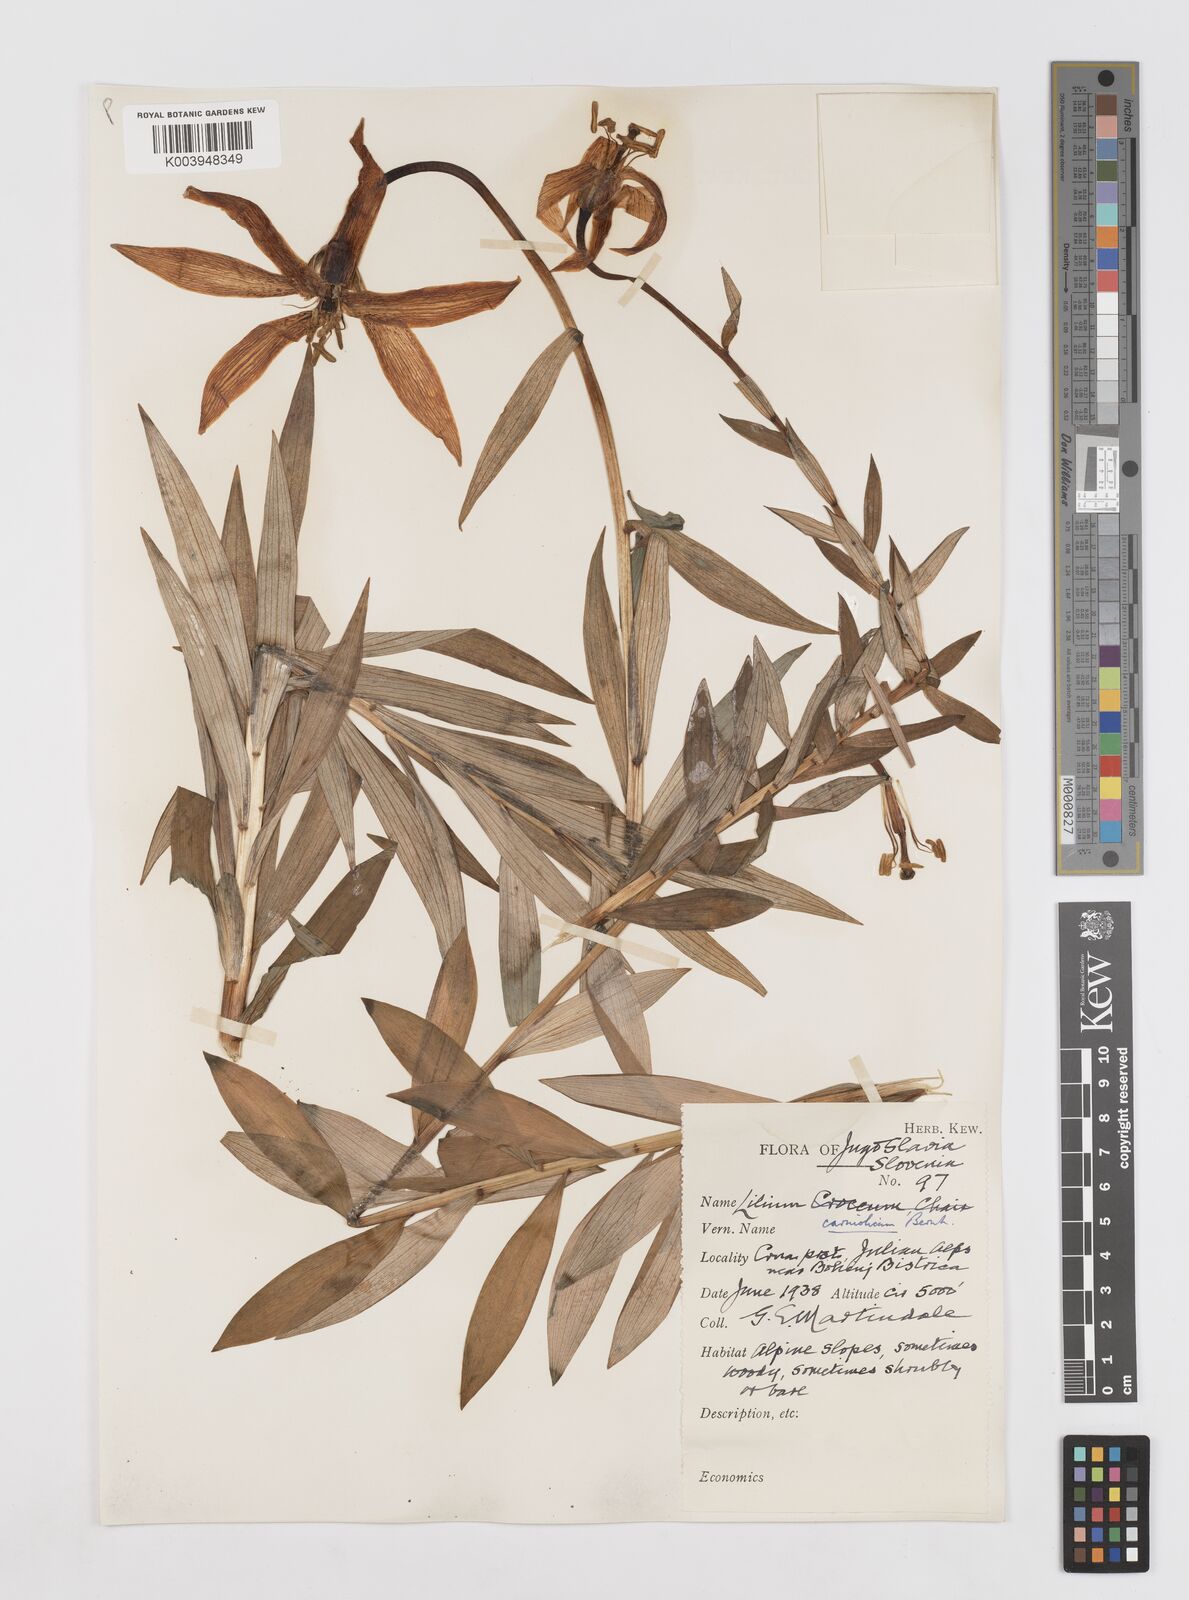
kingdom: Plantae
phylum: Tracheophyta
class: Liliopsida
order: Liliales
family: Liliaceae
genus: Lilium
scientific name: Lilium carniolicum
